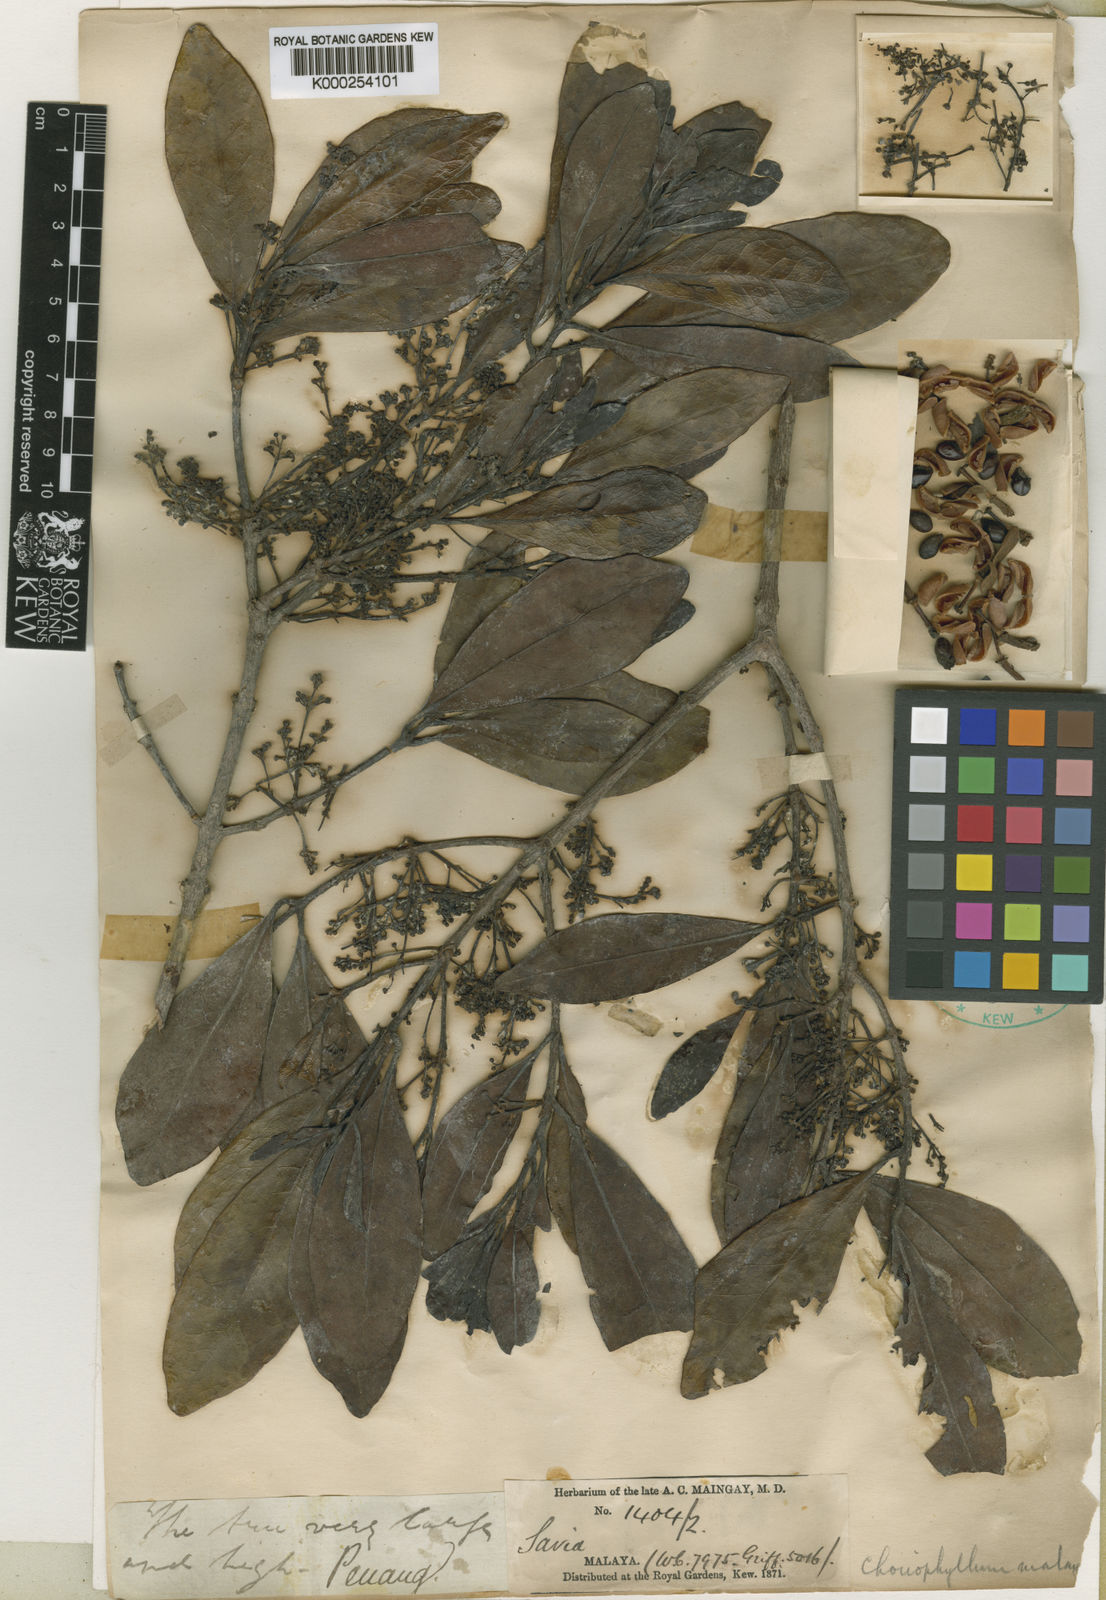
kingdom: Plantae
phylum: Tracheophyta
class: Magnoliopsida
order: Malpighiales
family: Picrodendraceae
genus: Austrobuxus
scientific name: Austrobuxus nitidus
